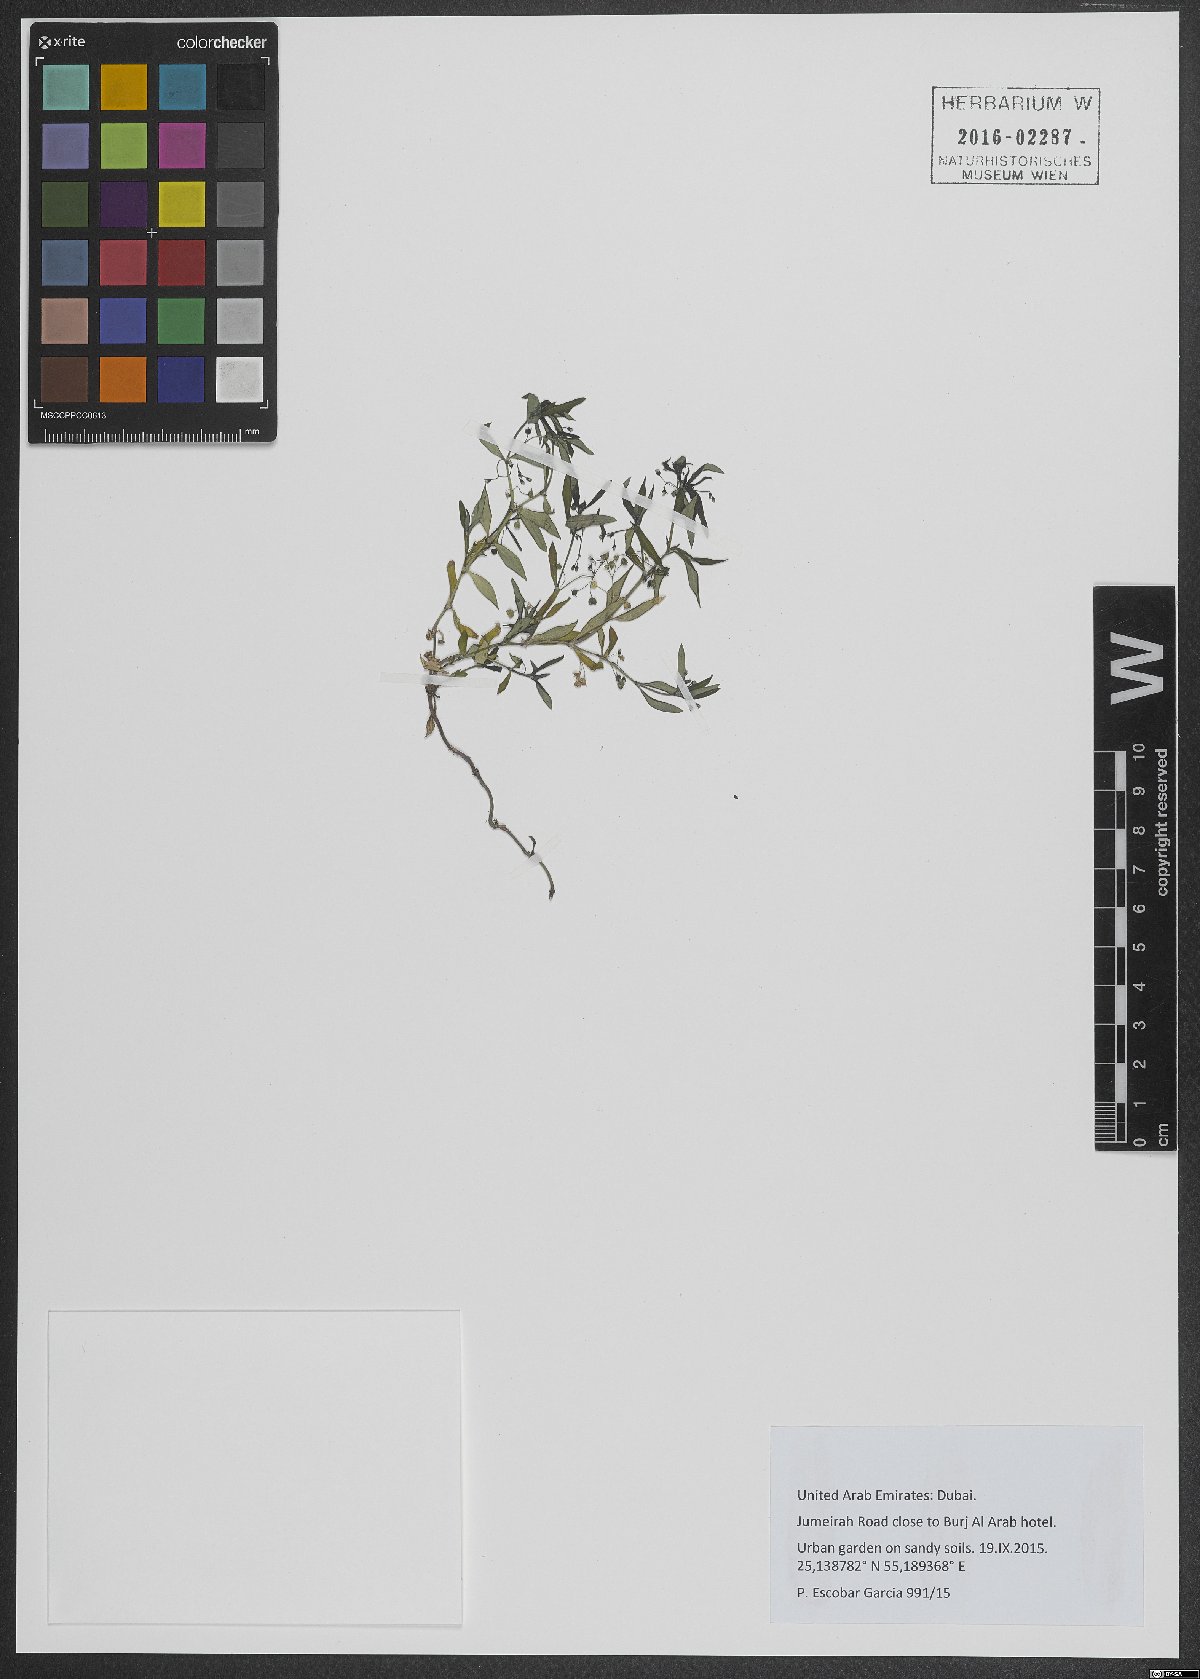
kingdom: Plantae
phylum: Tracheophyta
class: Magnoliopsida
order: Caryophyllales
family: Caryophyllaceae
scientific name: Caryophyllaceae
